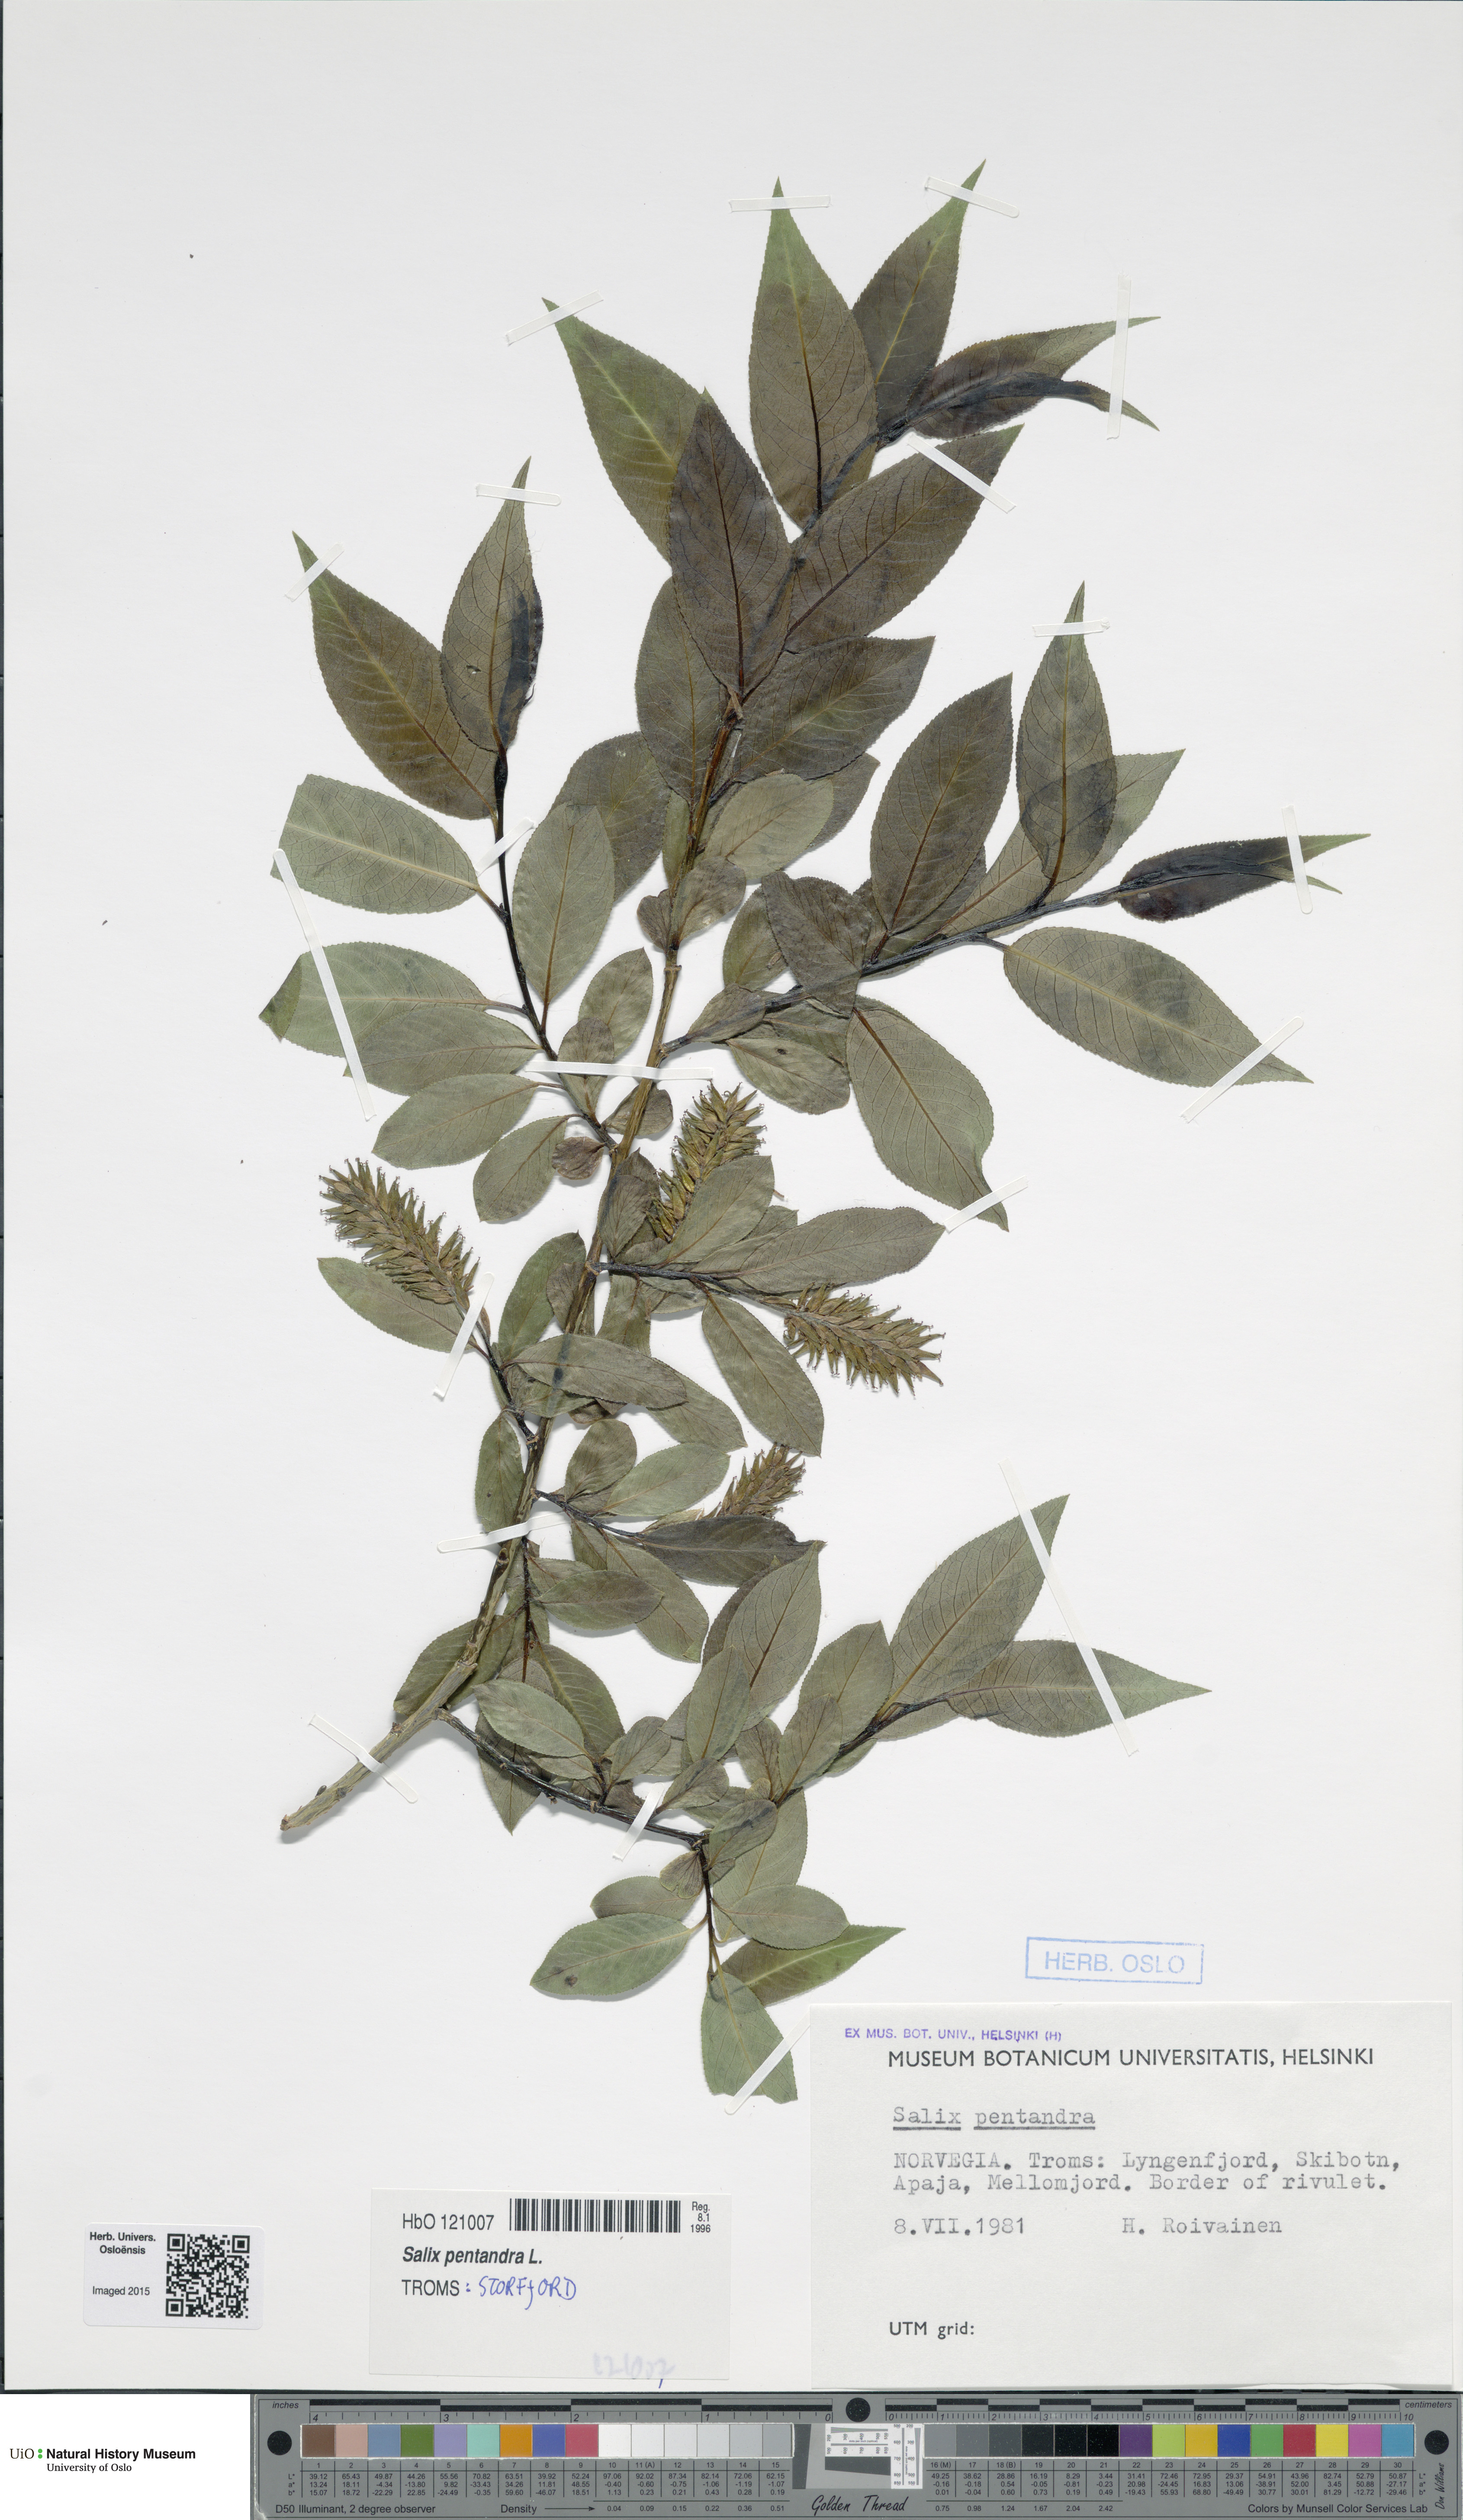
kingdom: Plantae
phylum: Tracheophyta
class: Magnoliopsida
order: Malpighiales
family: Salicaceae
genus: Salix
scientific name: Salix pentandra
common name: Bay willow
